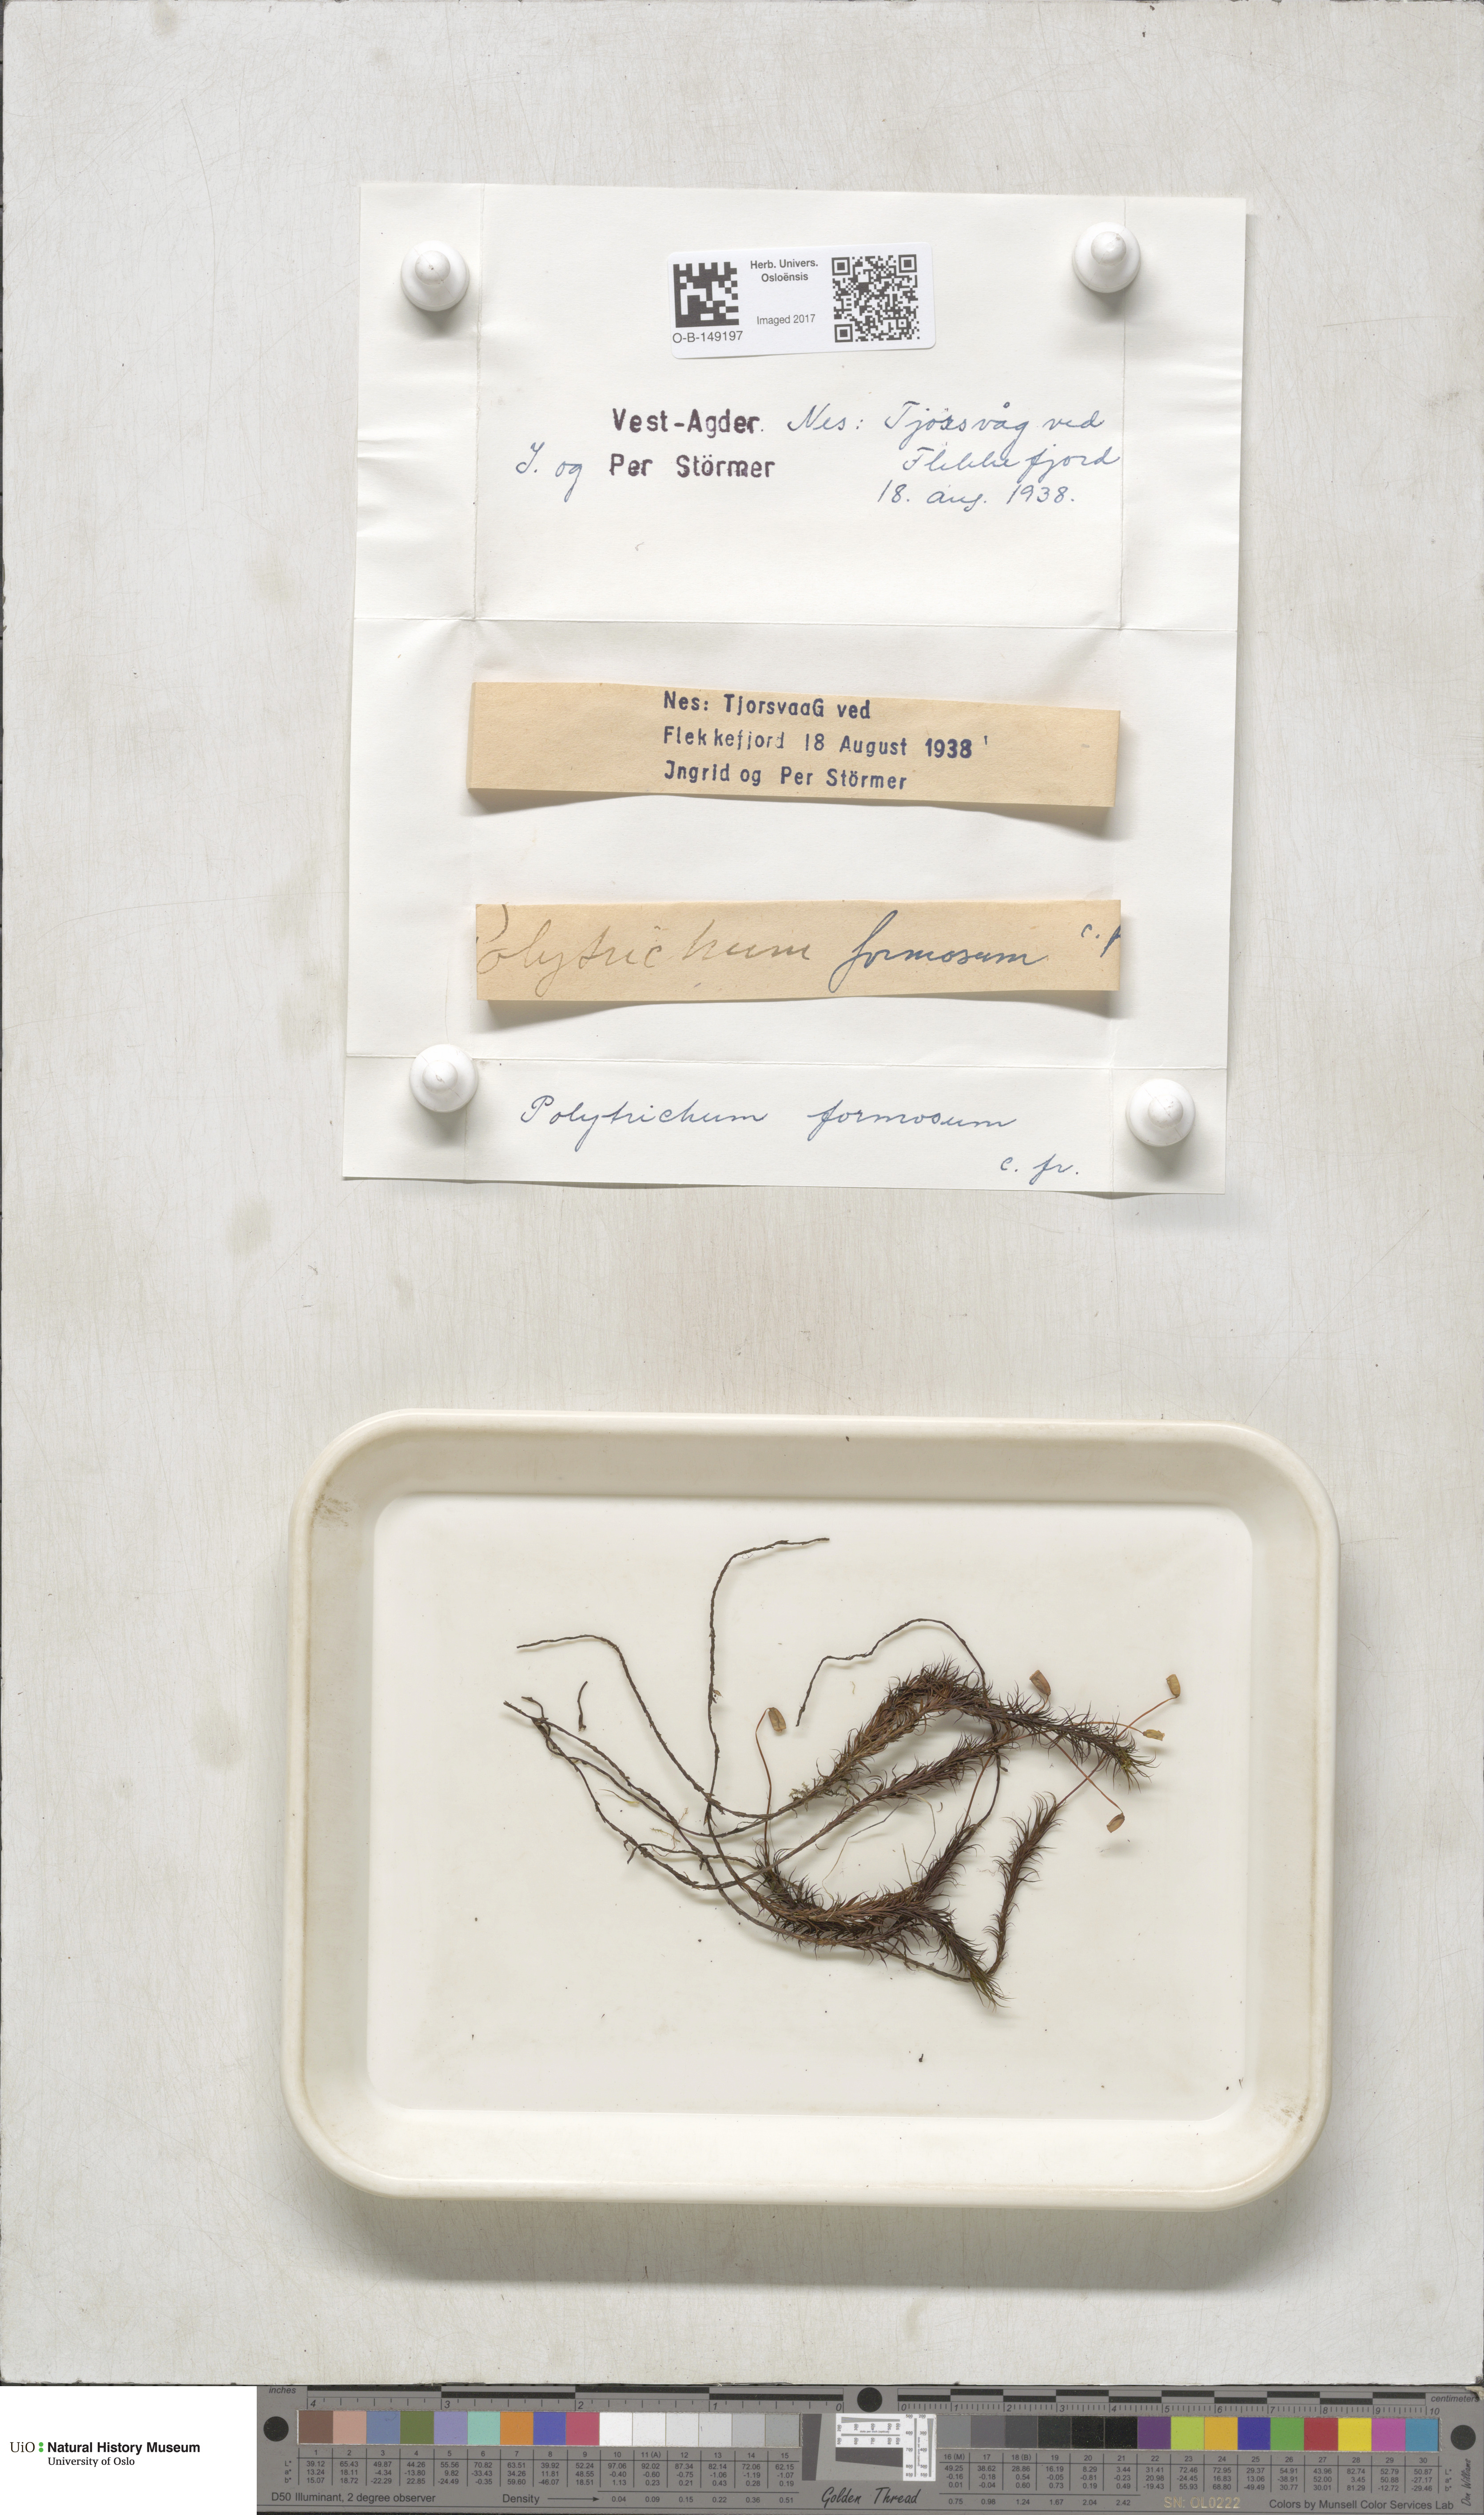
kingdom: Plantae
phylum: Bryophyta
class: Polytrichopsida
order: Polytrichales
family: Polytrichaceae
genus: Polytrichum
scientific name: Polytrichum formosum
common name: Bank haircap moss
